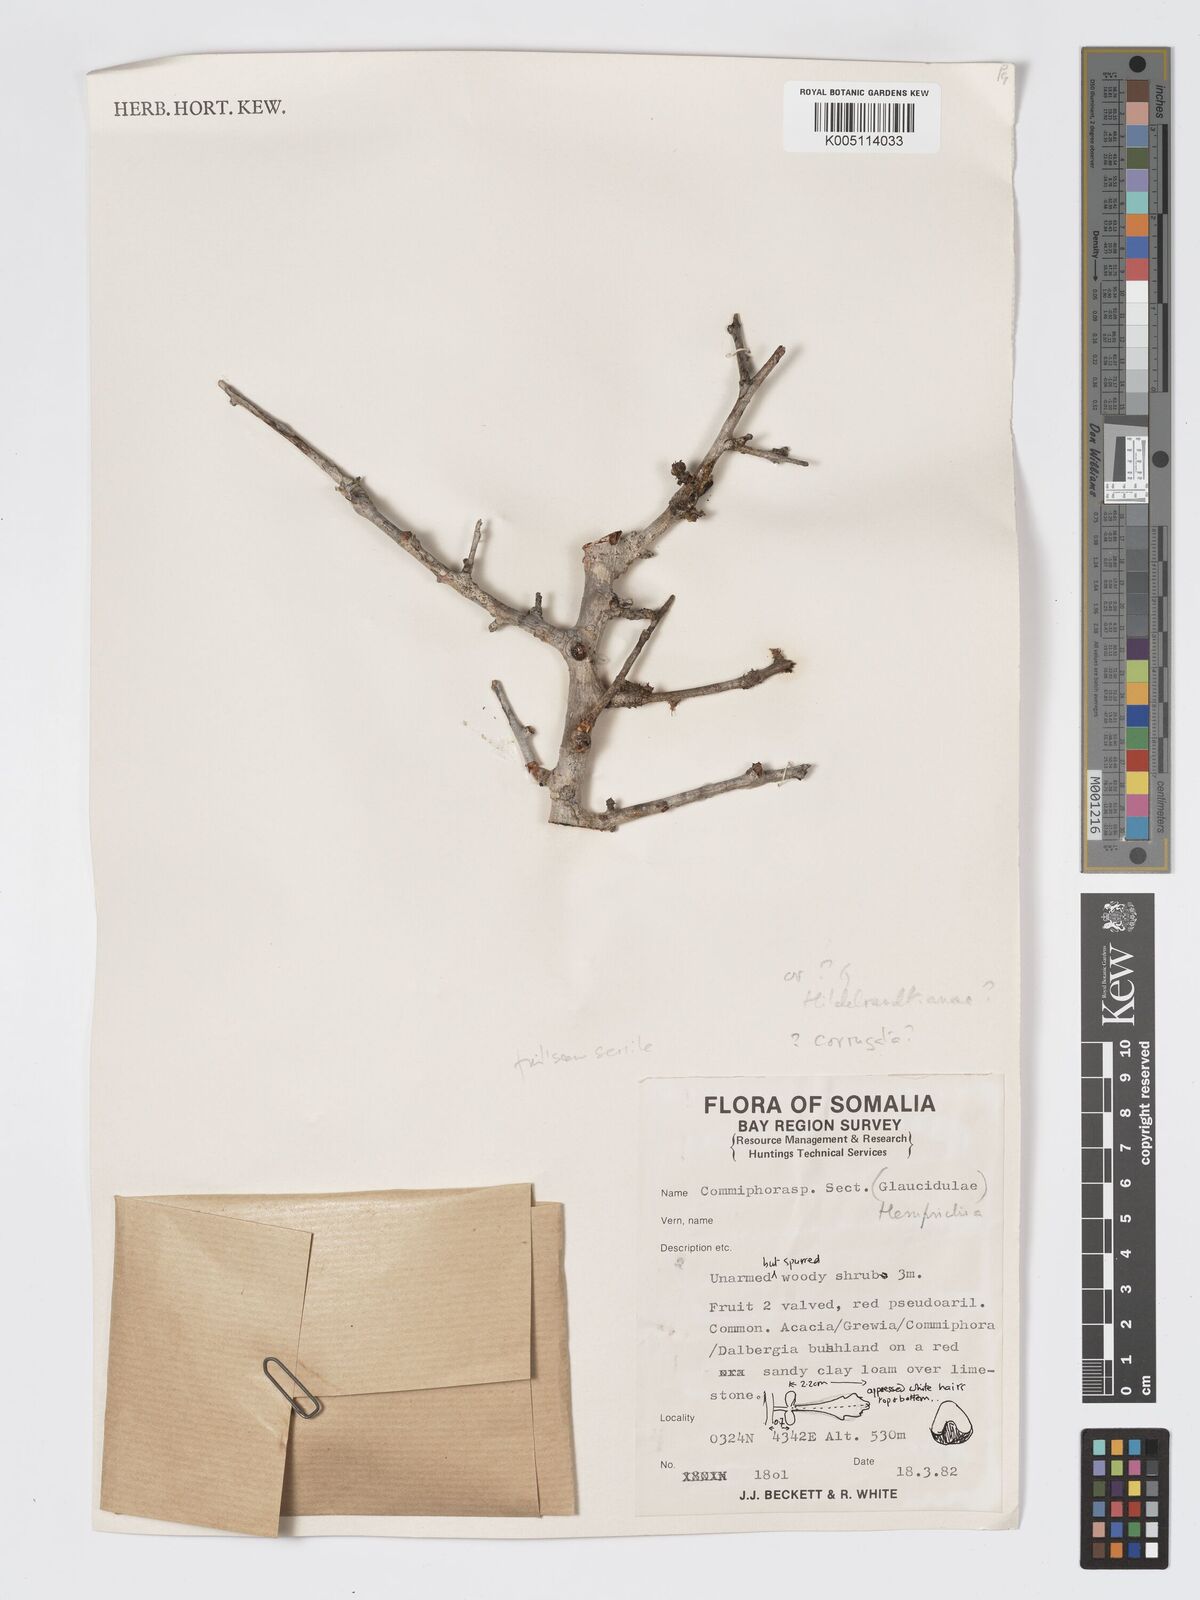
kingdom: Plantae
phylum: Tracheophyta
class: Magnoliopsida
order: Sapindales
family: Burseraceae
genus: Commiphora
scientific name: Commiphora corrugata
